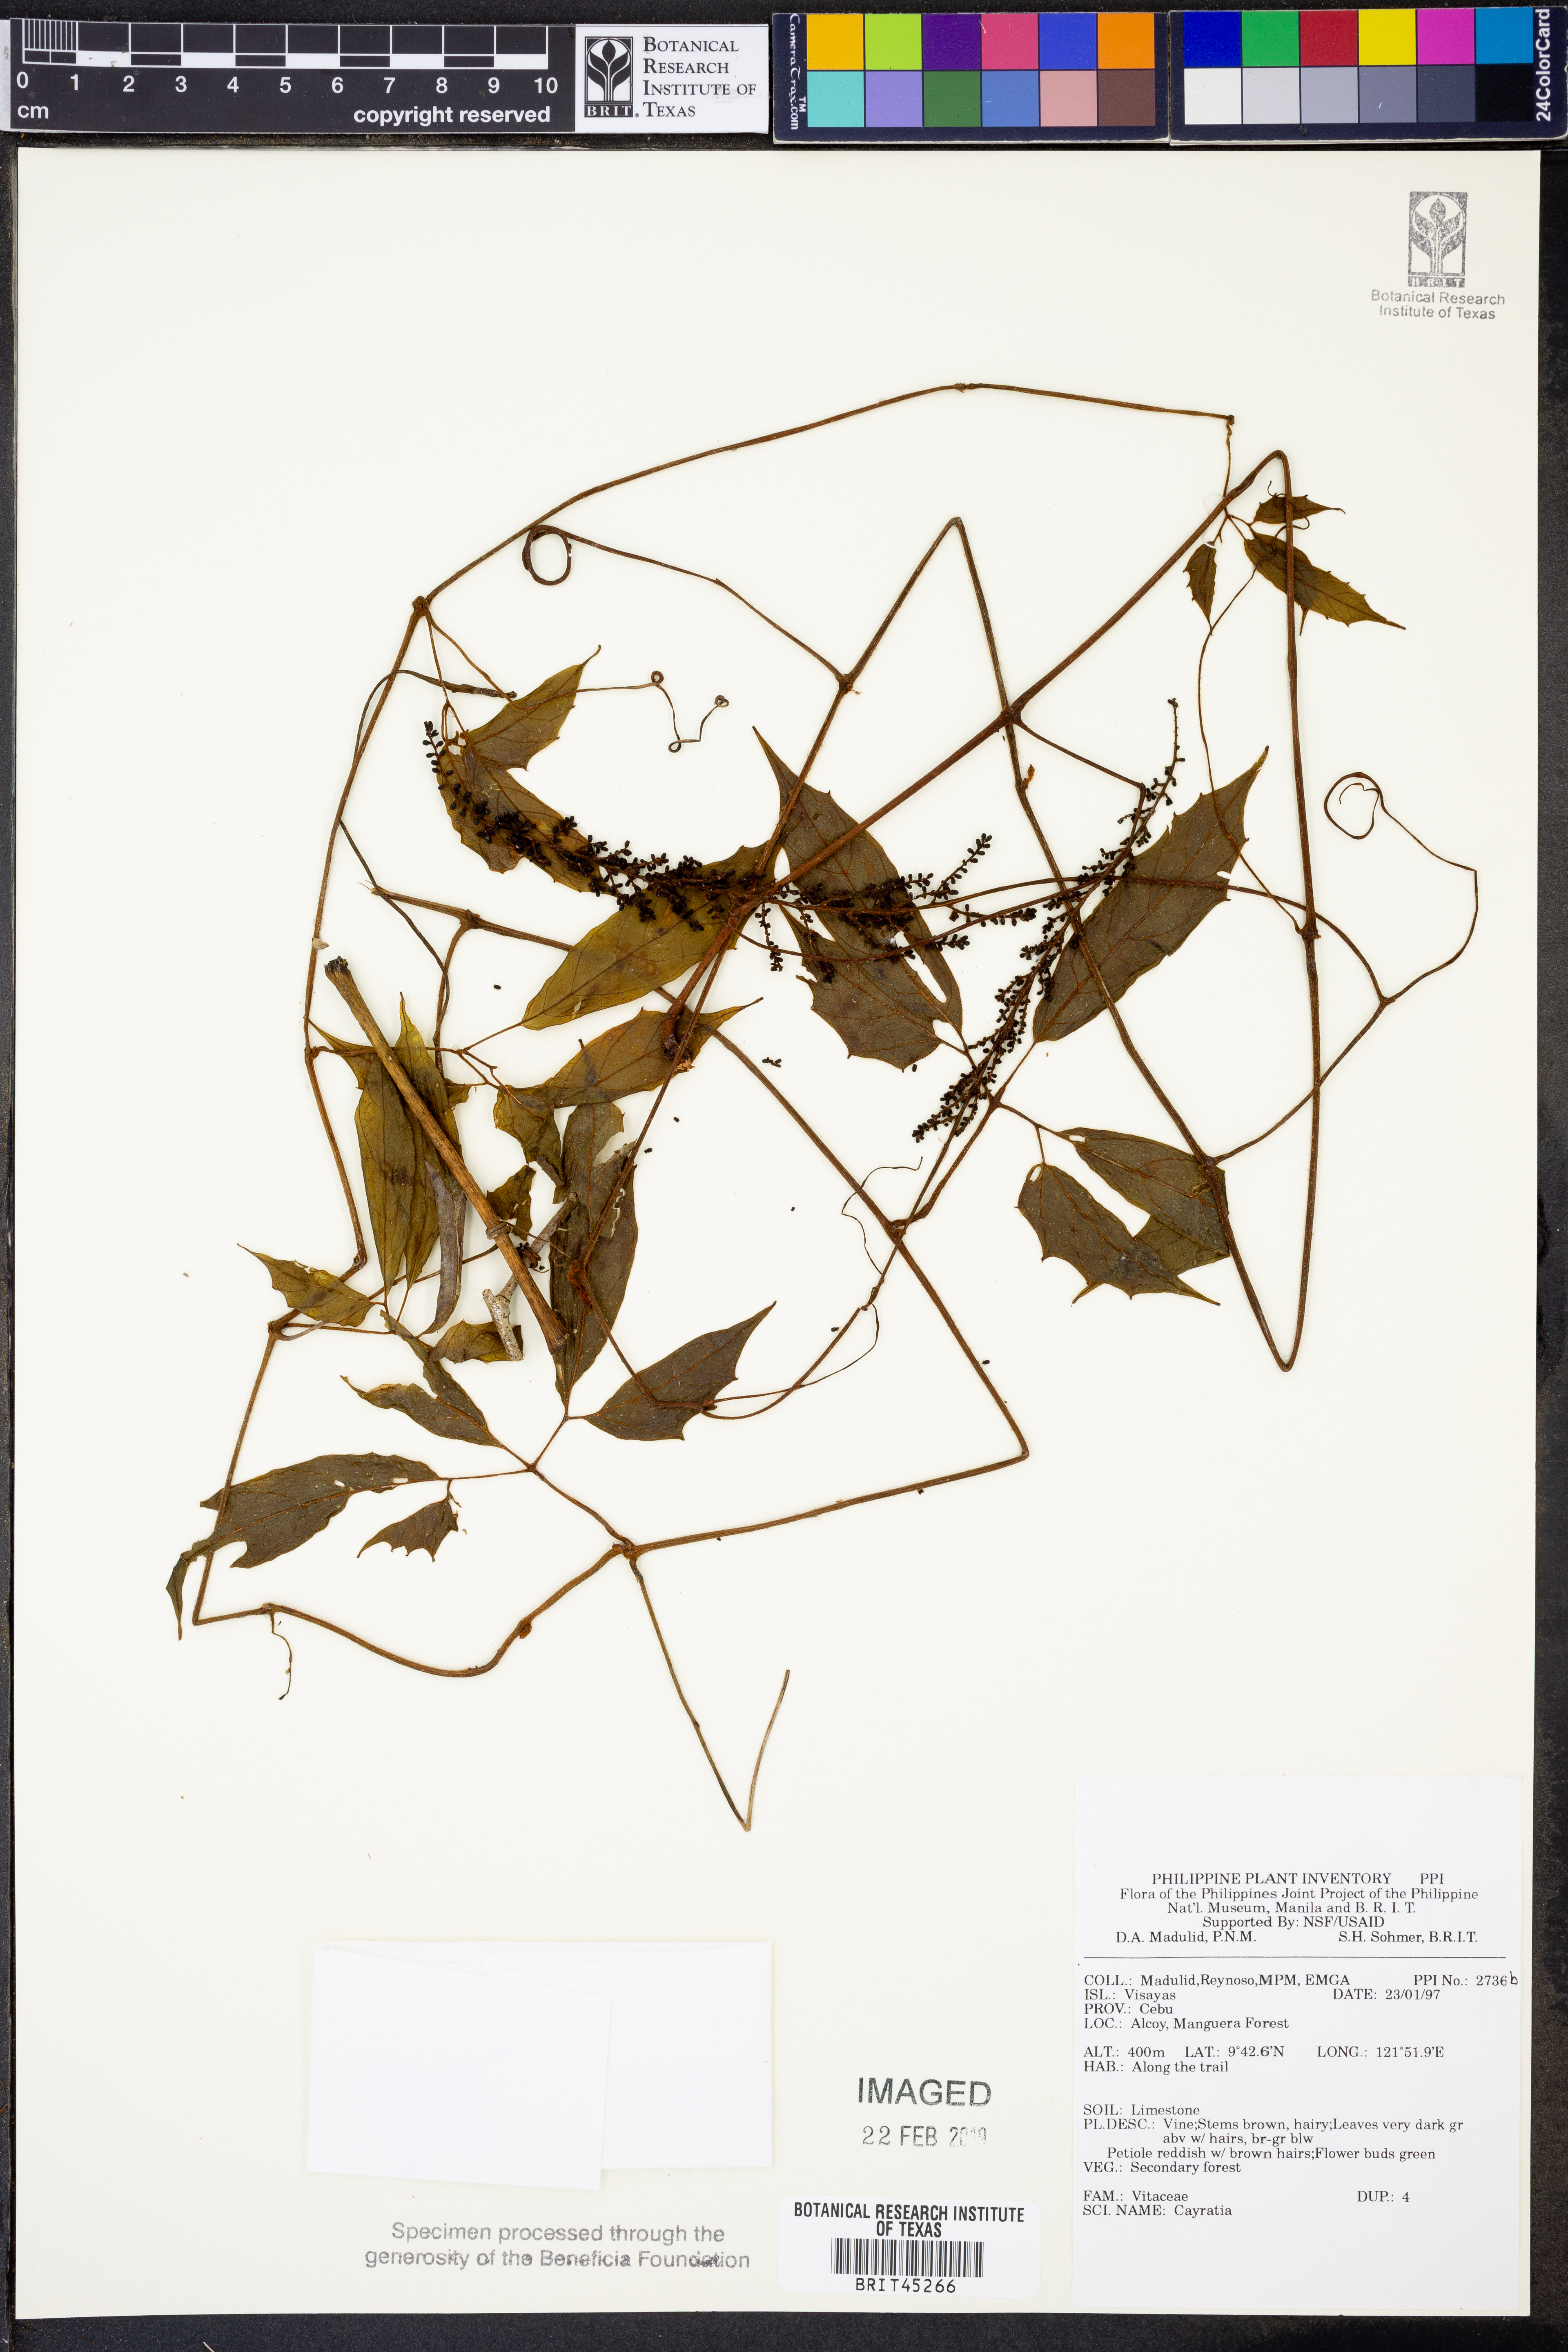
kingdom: Plantae
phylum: Tracheophyta
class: Magnoliopsida
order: Vitales
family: Vitaceae
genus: Cayratia
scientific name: Cayratia
